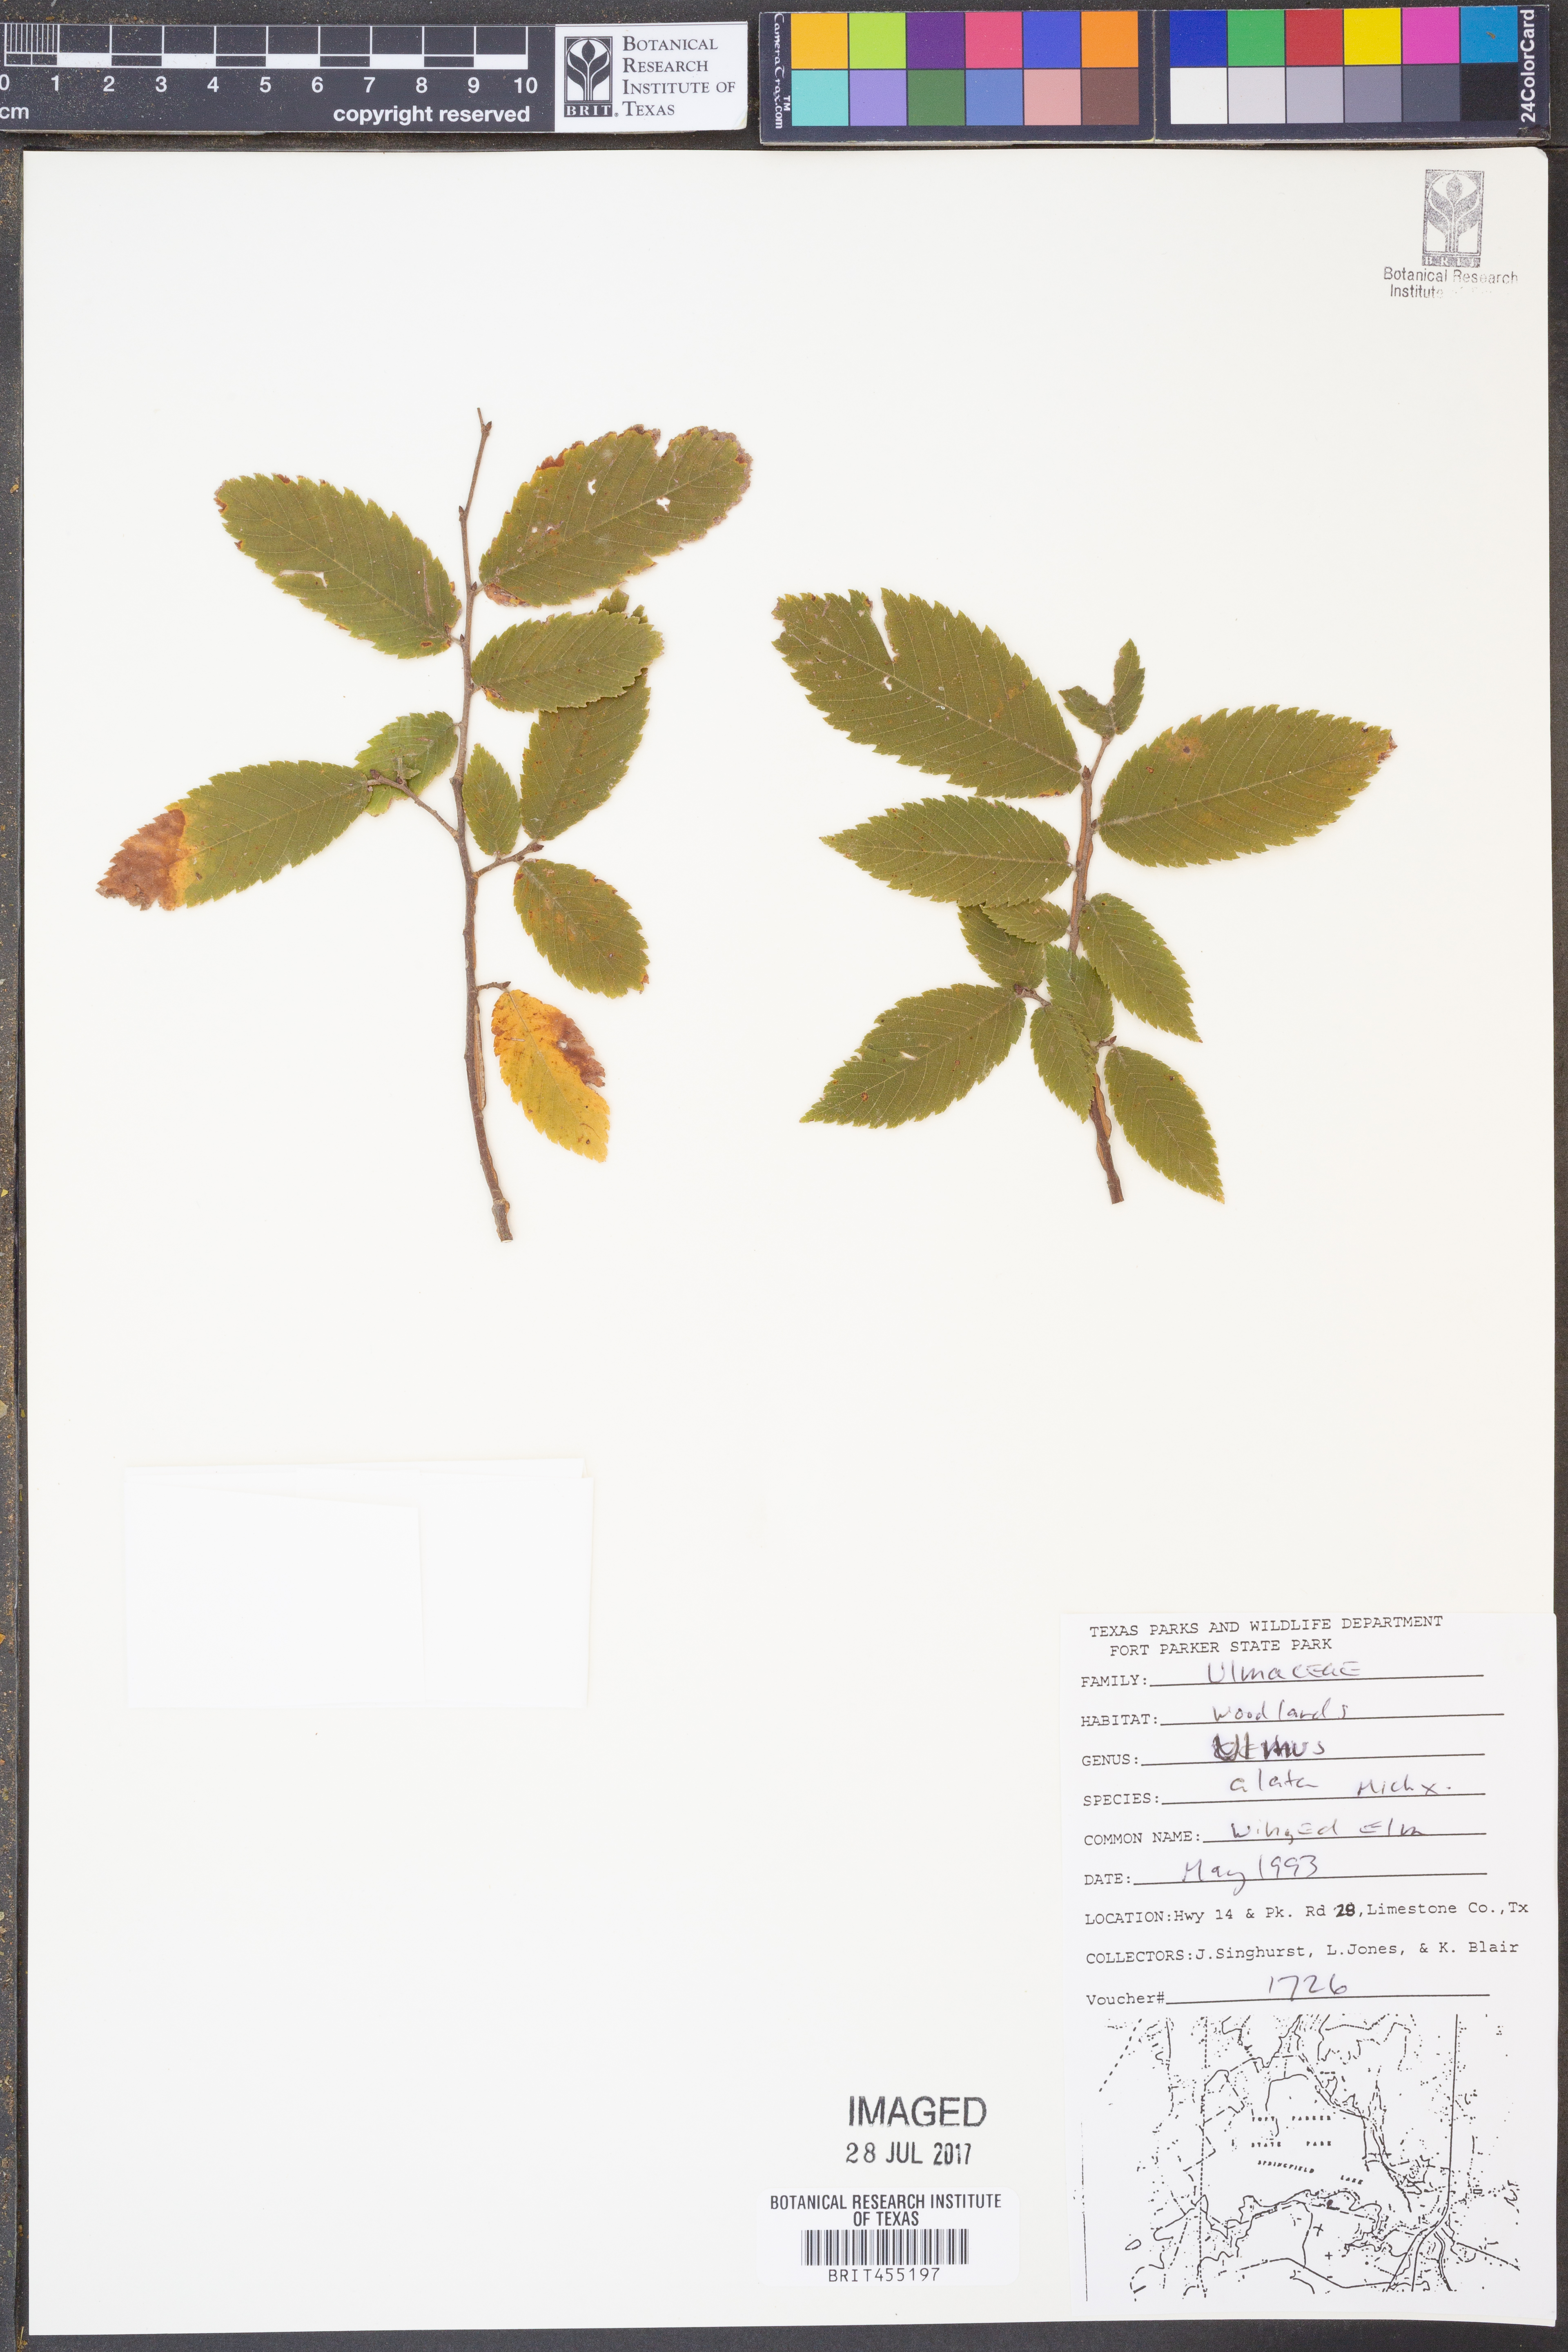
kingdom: Plantae
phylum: Tracheophyta
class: Magnoliopsida
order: Rosales
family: Ulmaceae
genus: Ulmus
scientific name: Ulmus alata
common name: Winged elm
